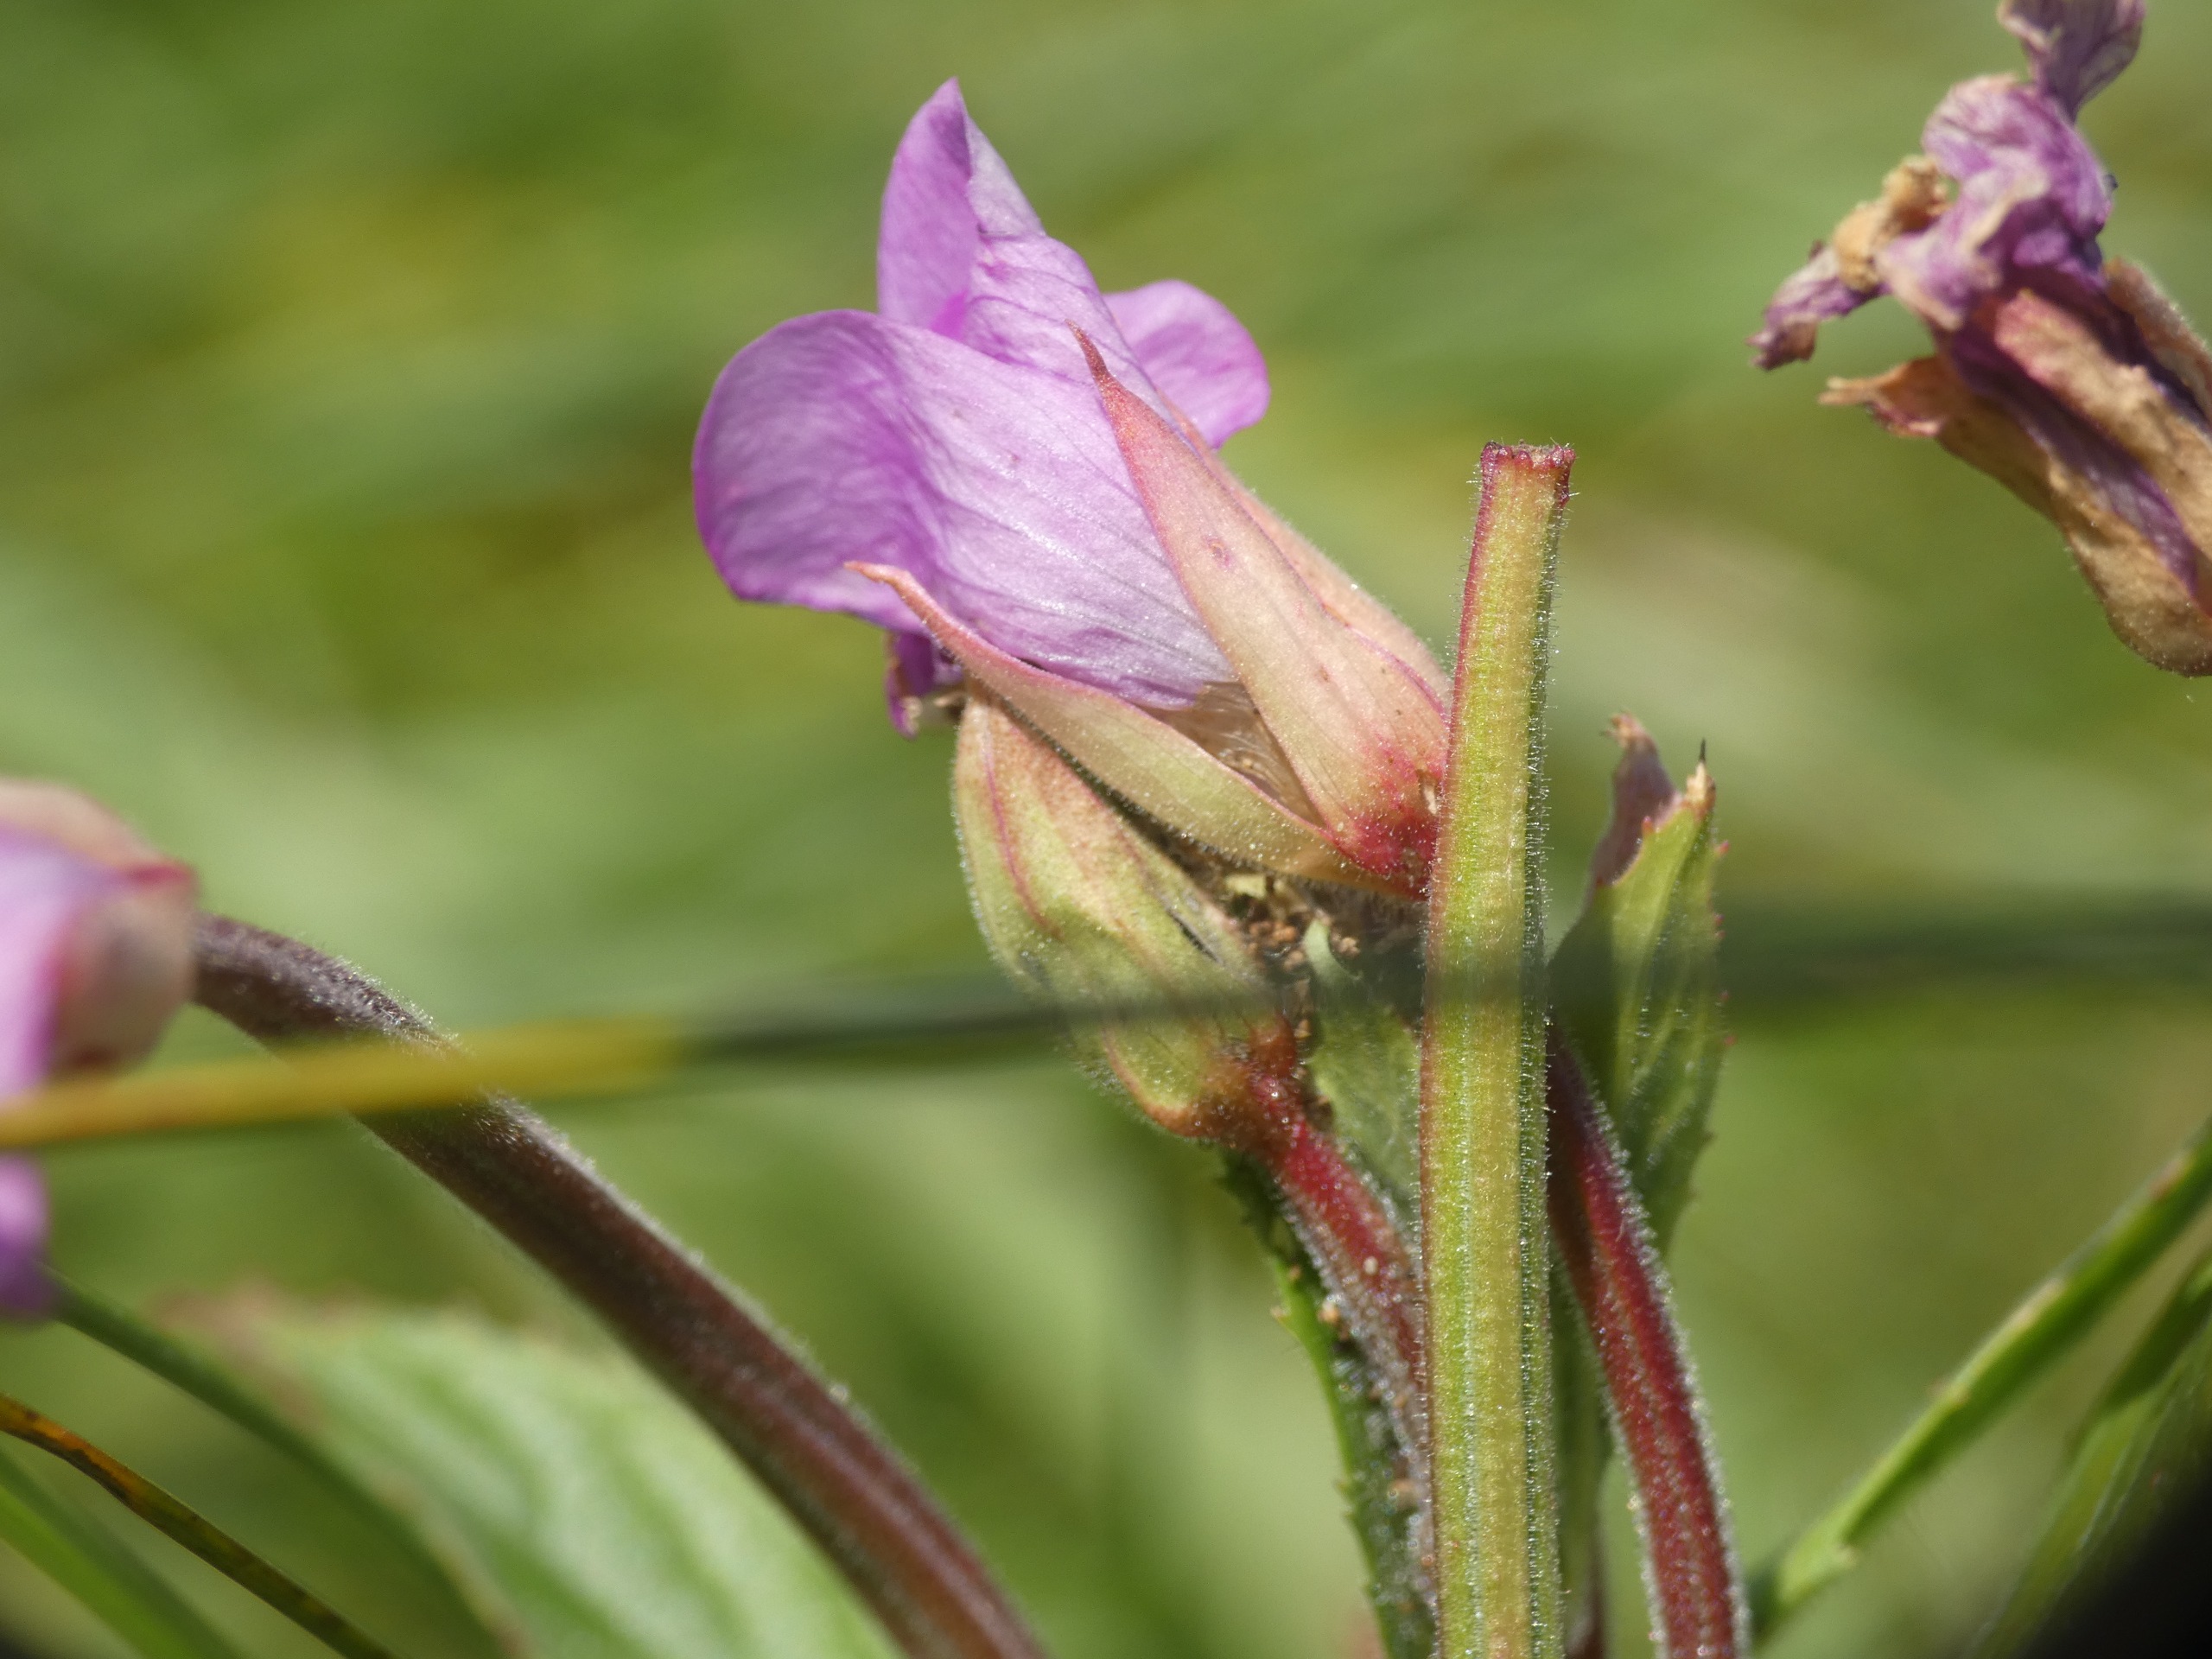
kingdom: Plantae
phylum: Tracheophyta
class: Magnoliopsida
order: Myrtales
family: Onagraceae
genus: Epilobium
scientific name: Epilobium parviflorum
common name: Dunet dueurt
